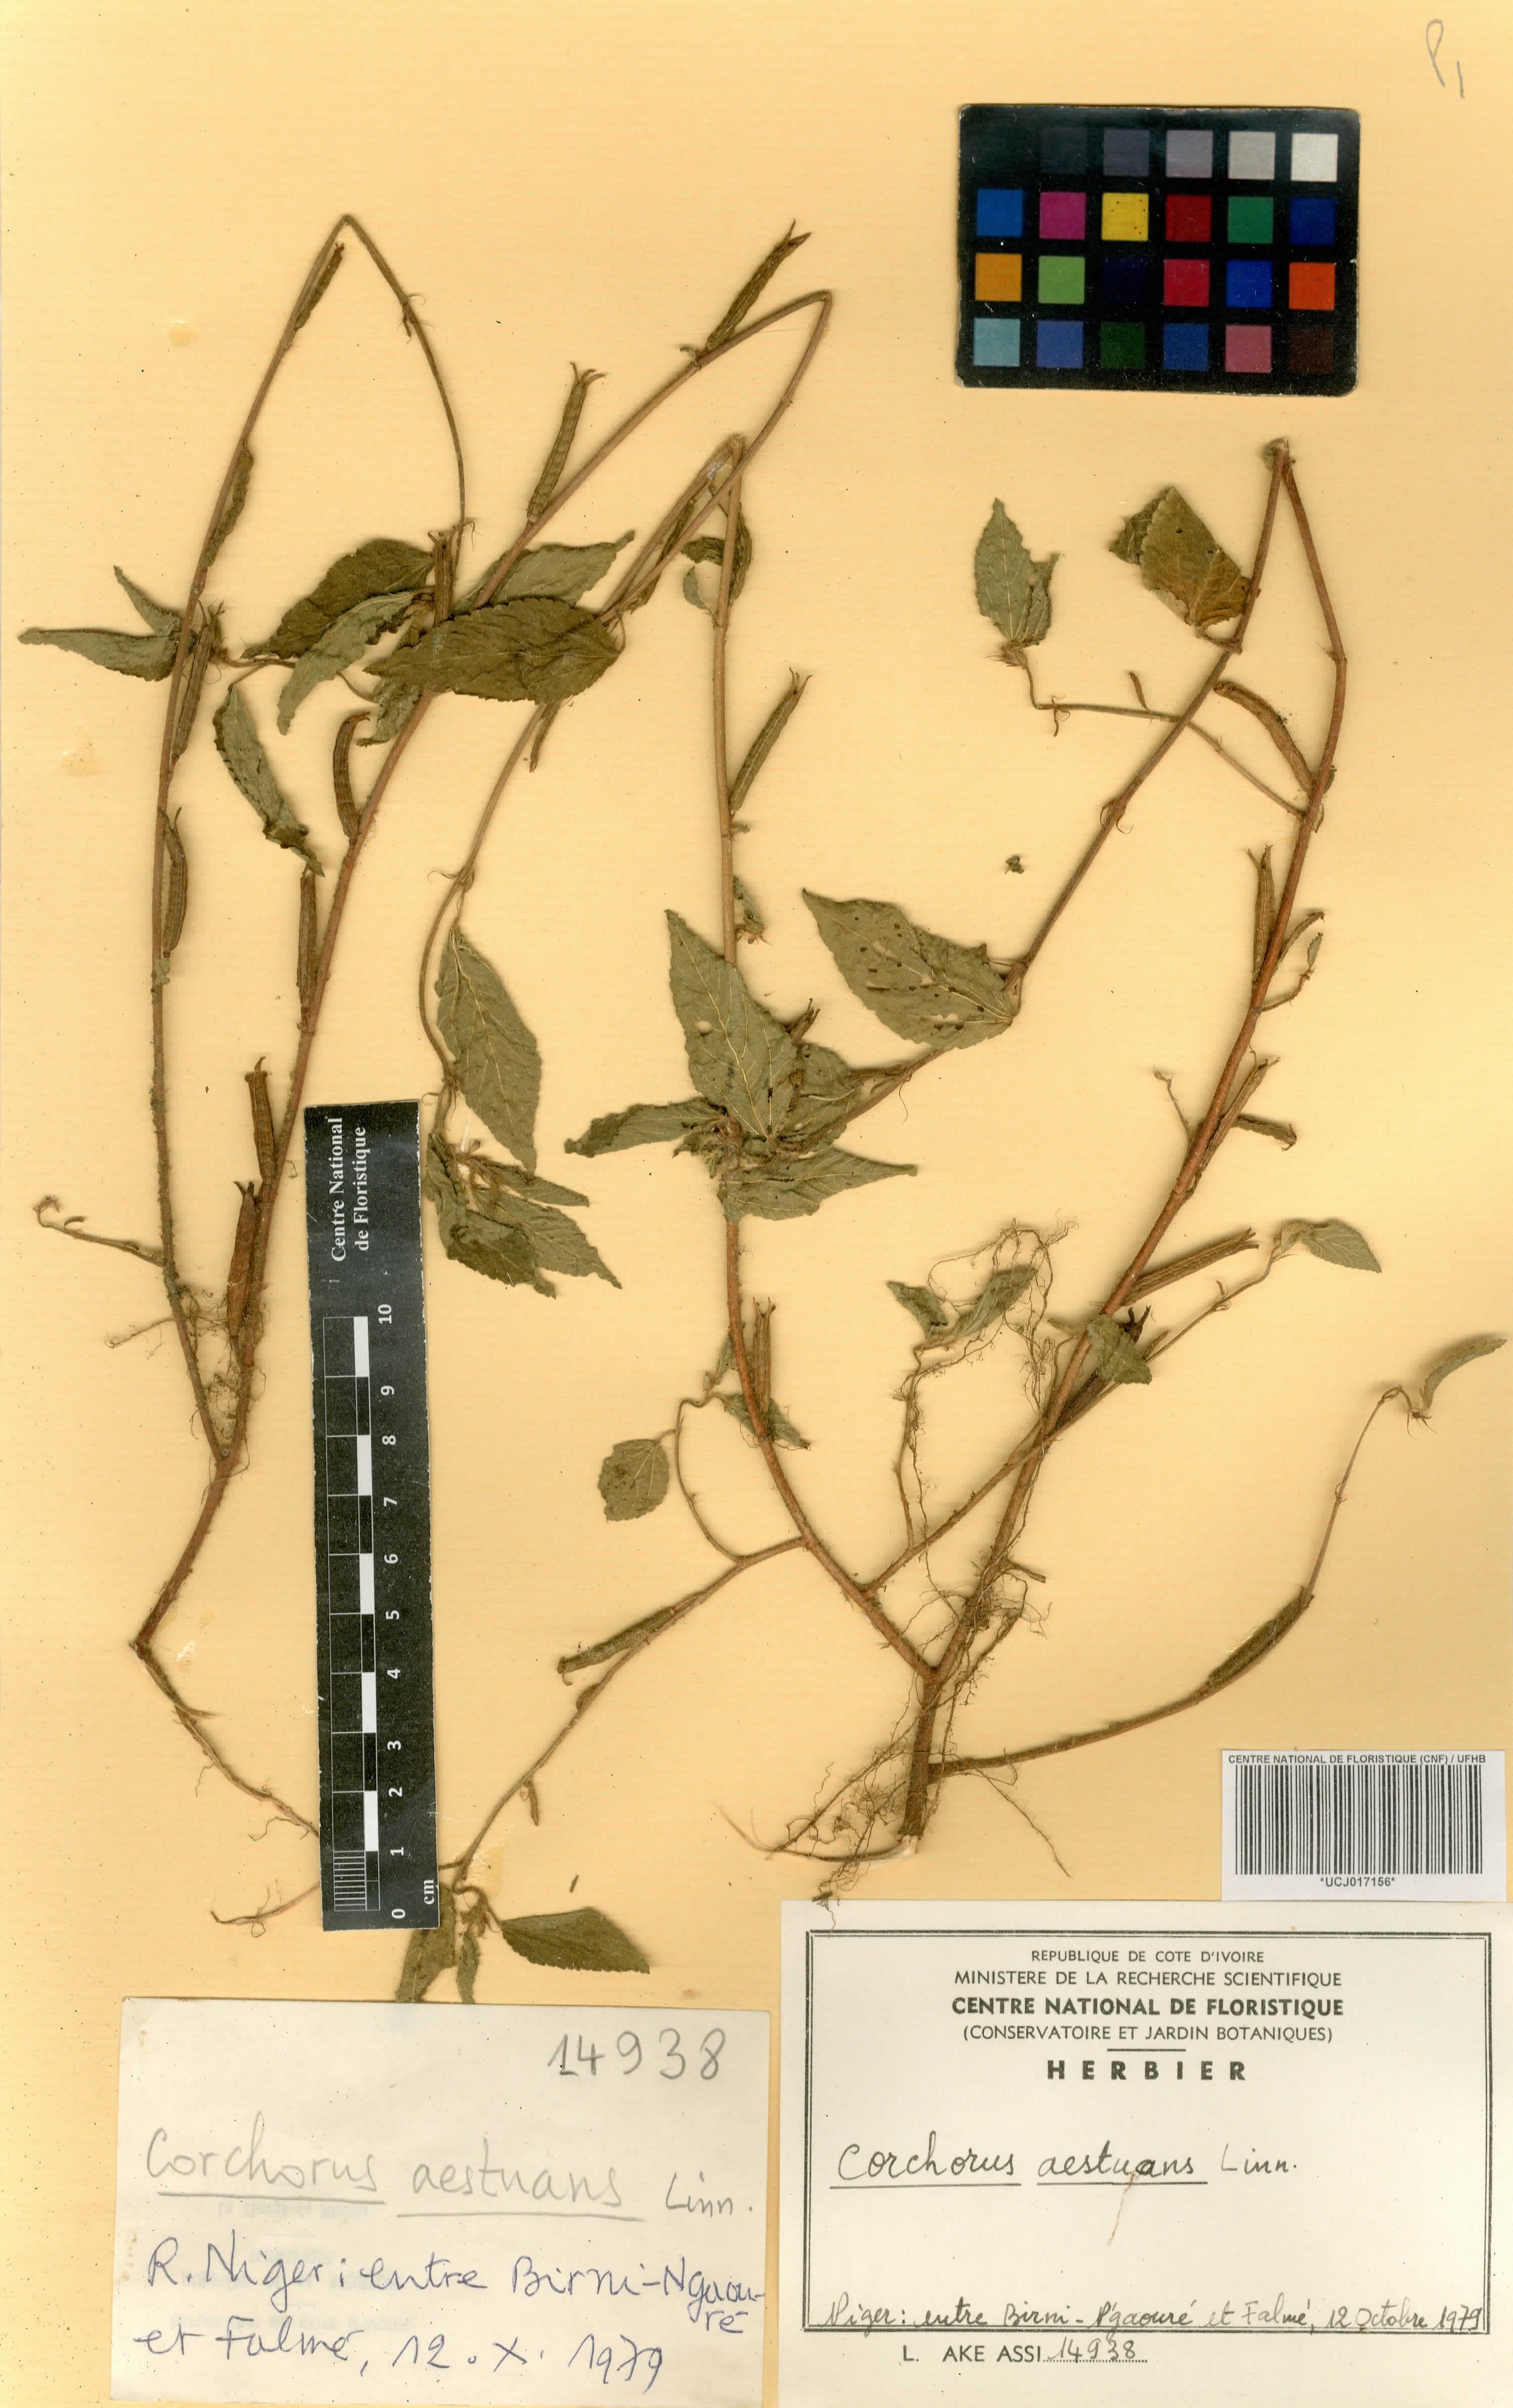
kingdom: Plantae
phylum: Tracheophyta
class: Magnoliopsida
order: Malvales
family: Malvaceae
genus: Corchorus
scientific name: Corchorus aestuans
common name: Jute
